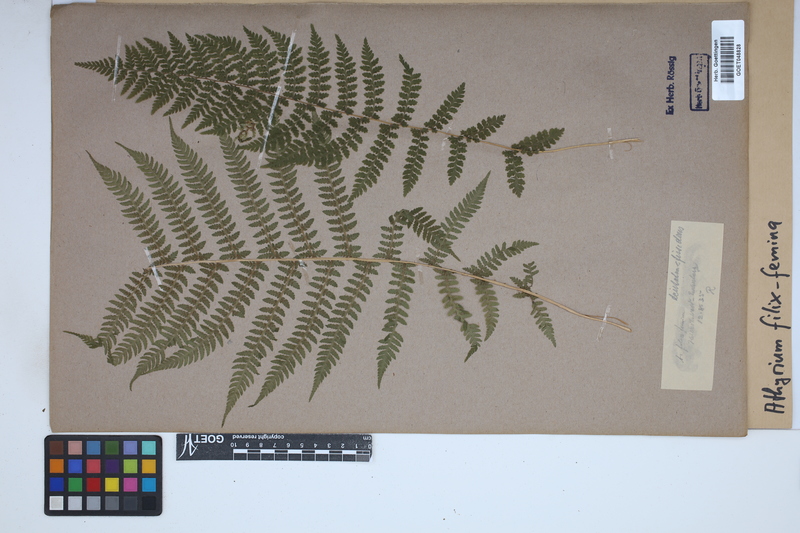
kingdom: Plantae
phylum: Tracheophyta
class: Polypodiopsida
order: Polypodiales
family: Athyriaceae
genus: Athyrium
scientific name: Athyrium filix-femina
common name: Lady fern
